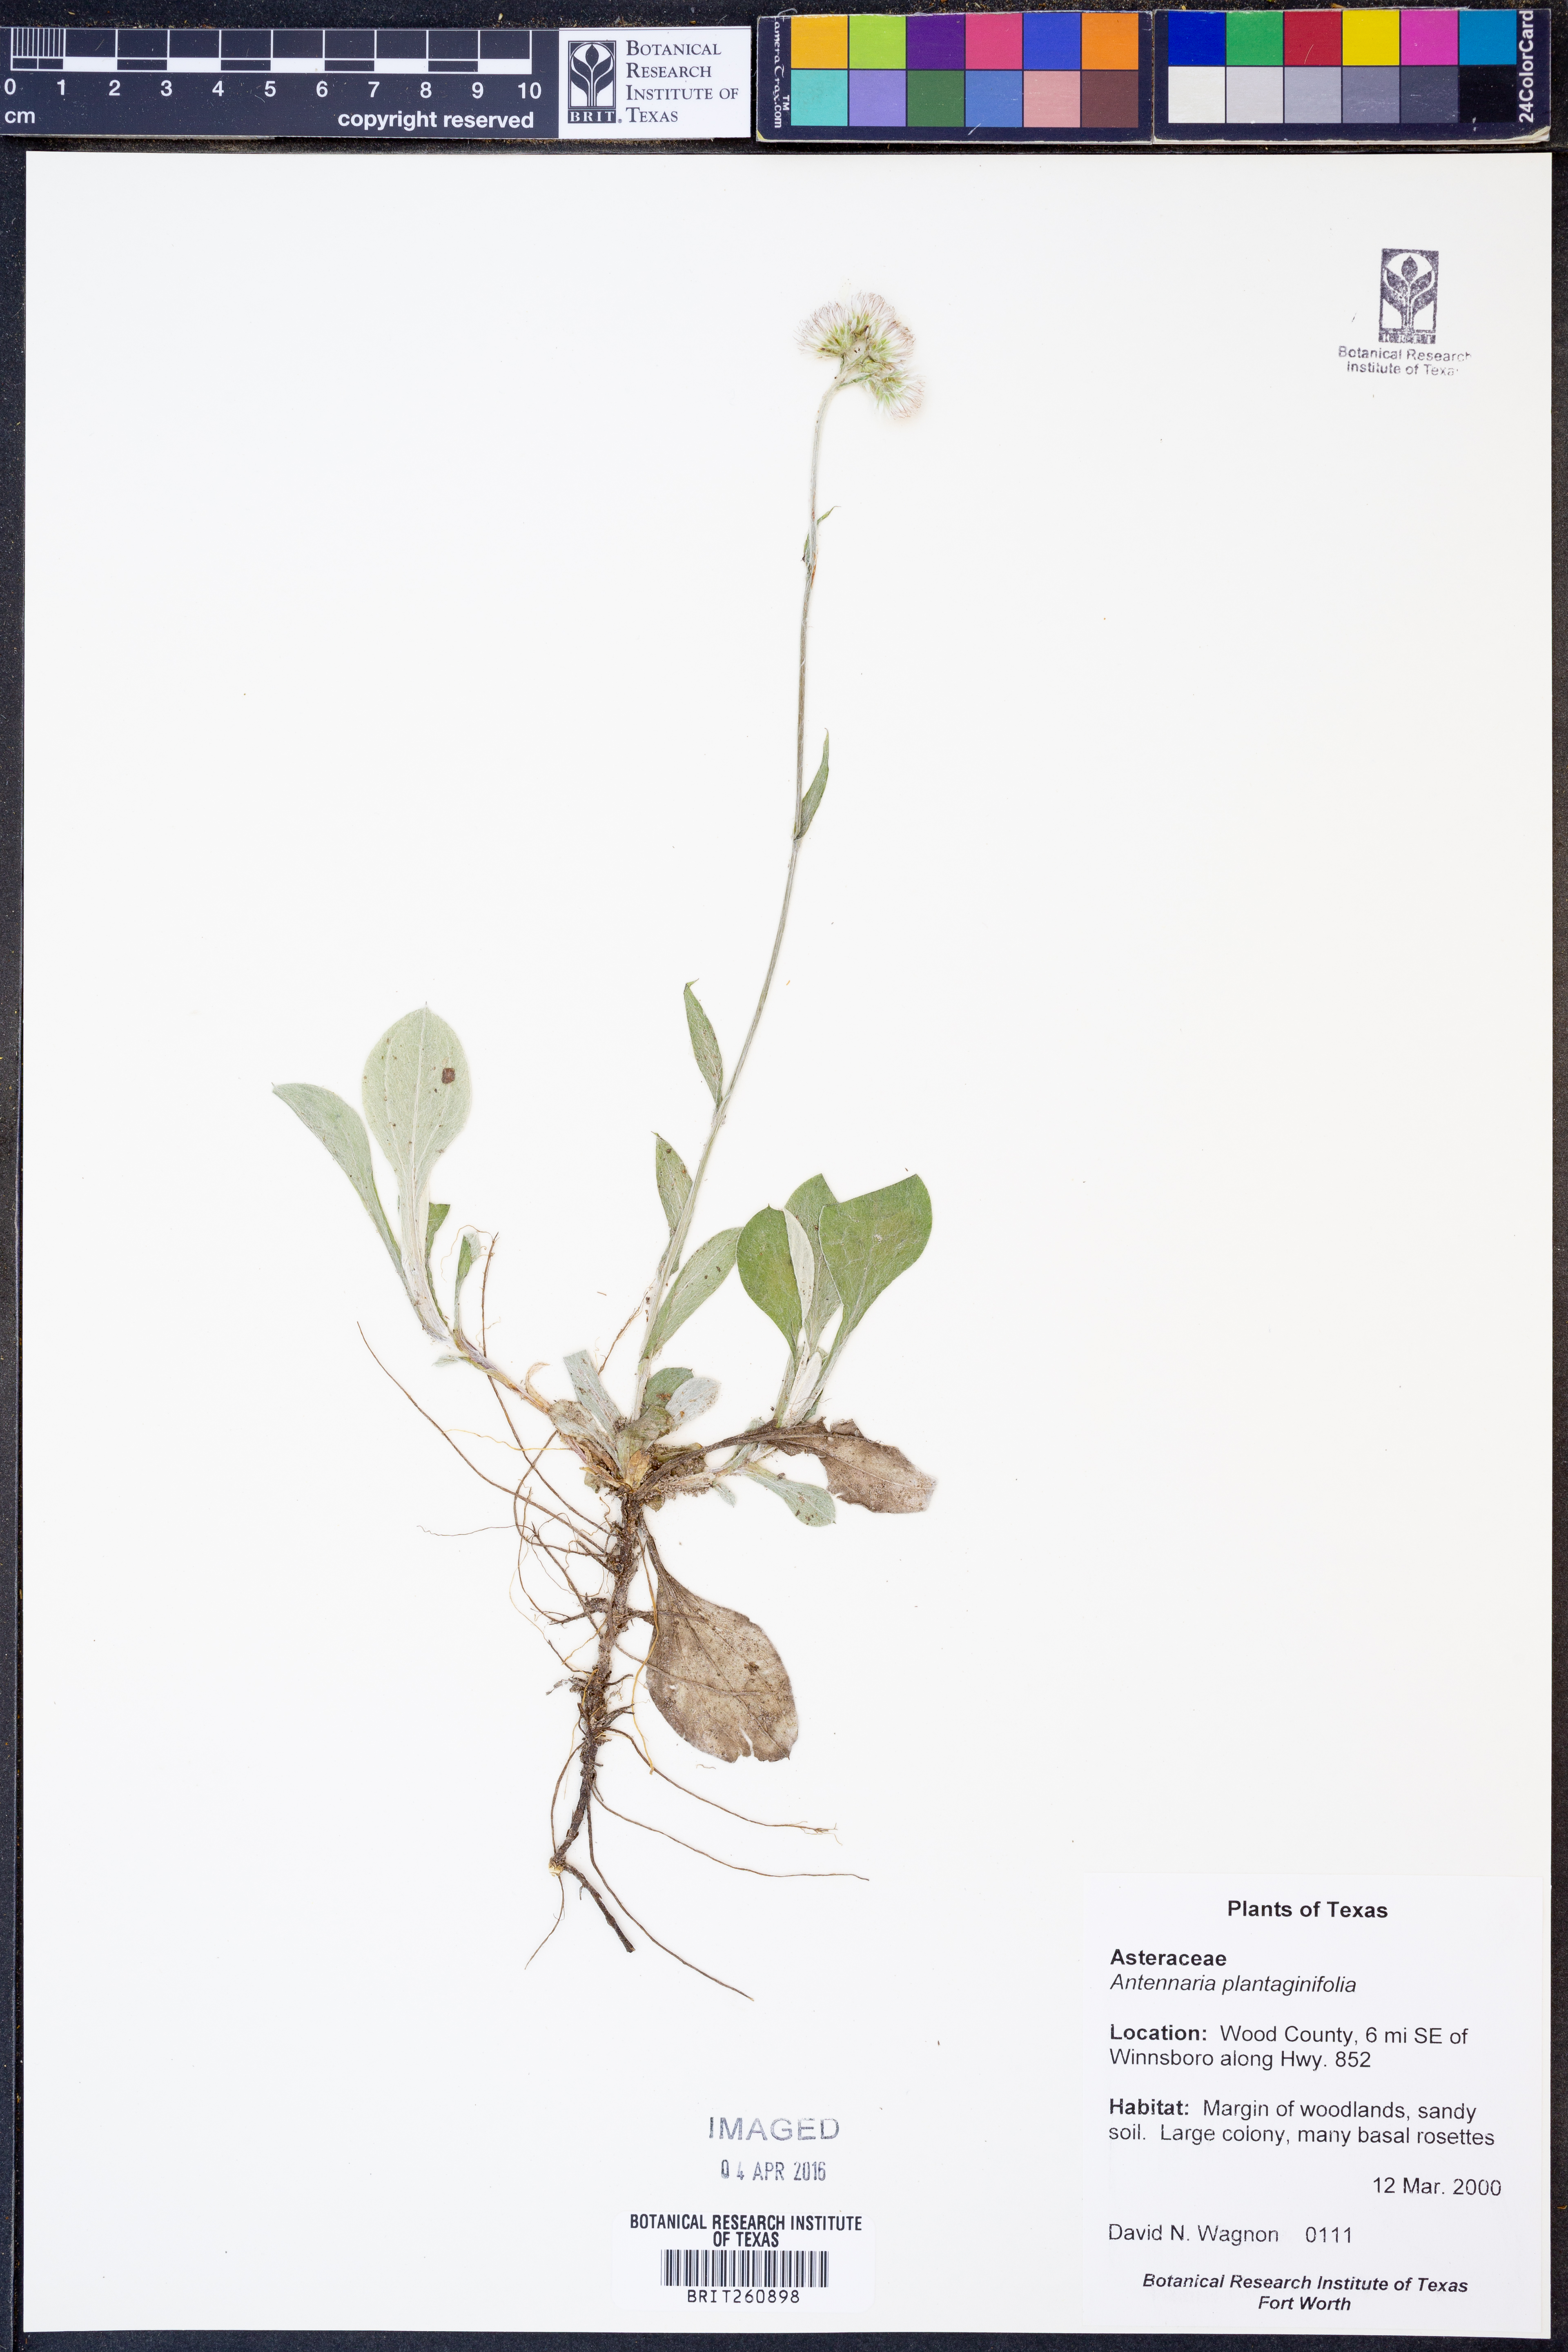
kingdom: Plantae
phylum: Tracheophyta
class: Magnoliopsida
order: Asterales
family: Asteraceae
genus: Antennaria
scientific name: Antennaria plantaginifolia
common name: Plantain-leaved pussytoes
